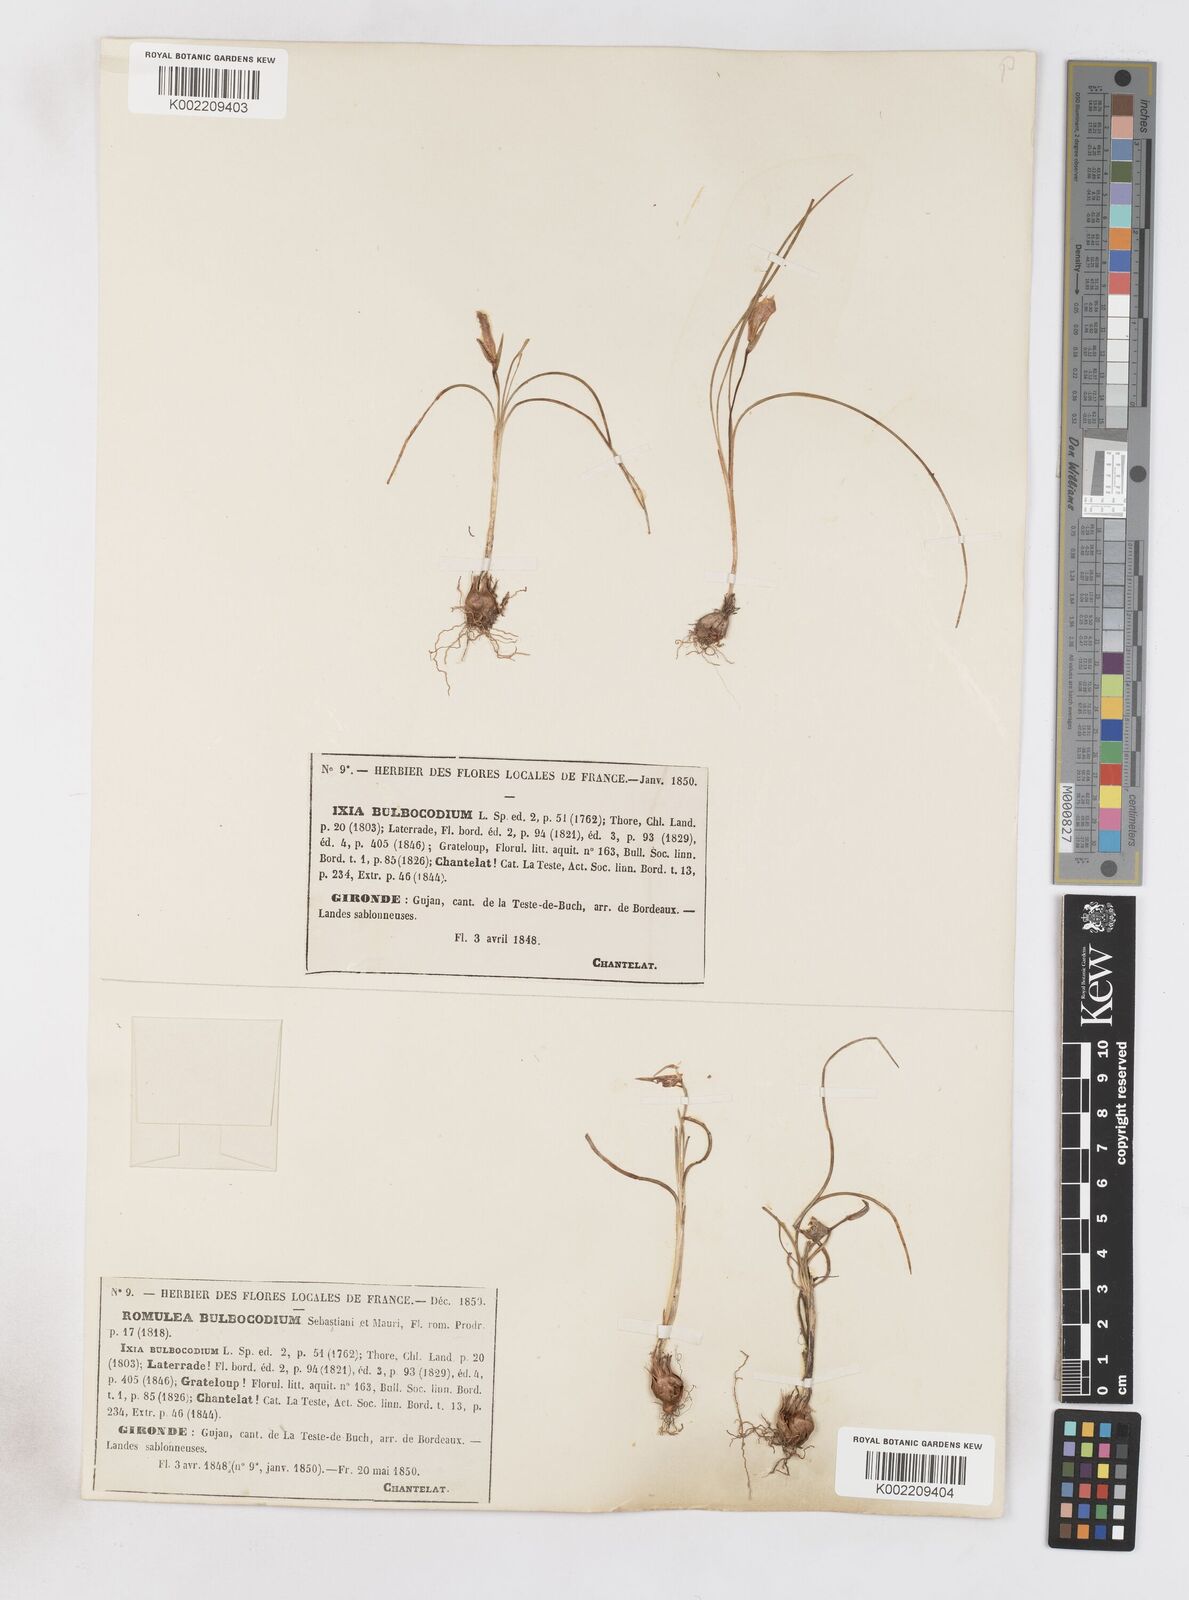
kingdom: Plantae
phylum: Tracheophyta
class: Liliopsida
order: Asparagales
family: Iridaceae
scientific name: Iridaceae
